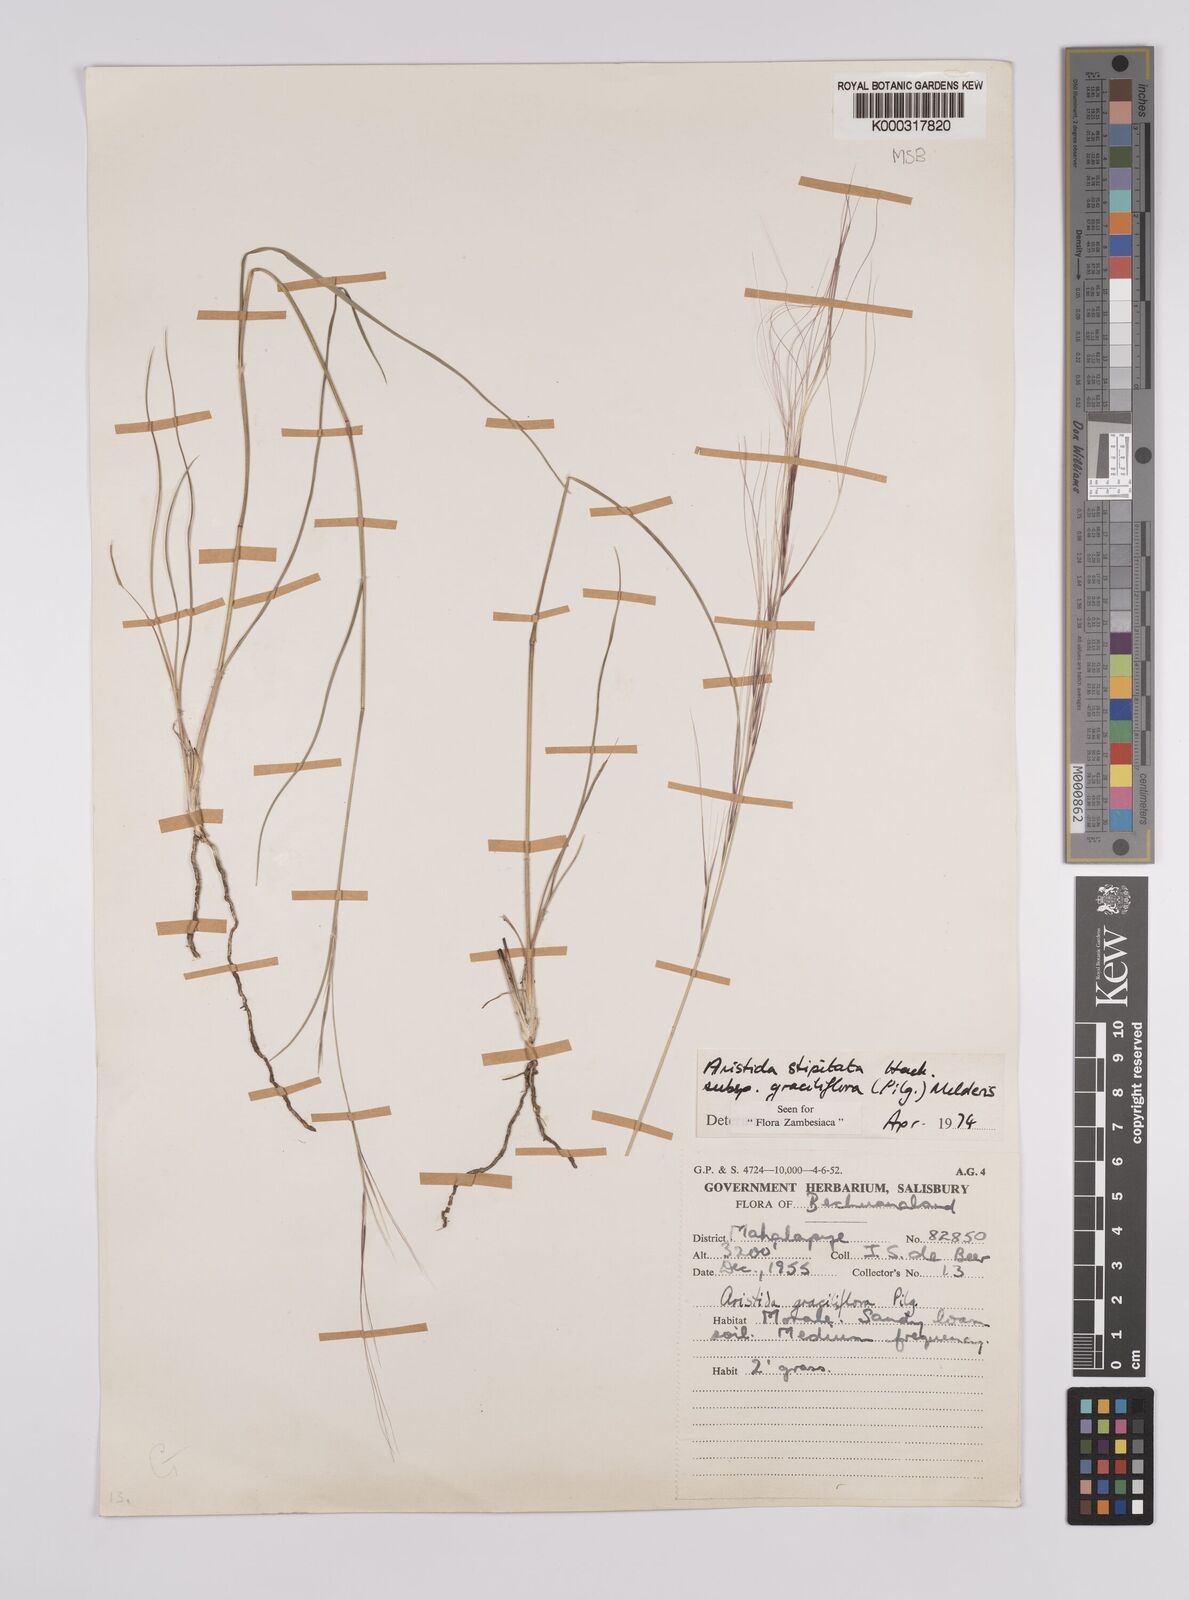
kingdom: Plantae
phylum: Tracheophyta
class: Liliopsida
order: Poales
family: Poaceae
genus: Aristida
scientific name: Aristida stipitata
